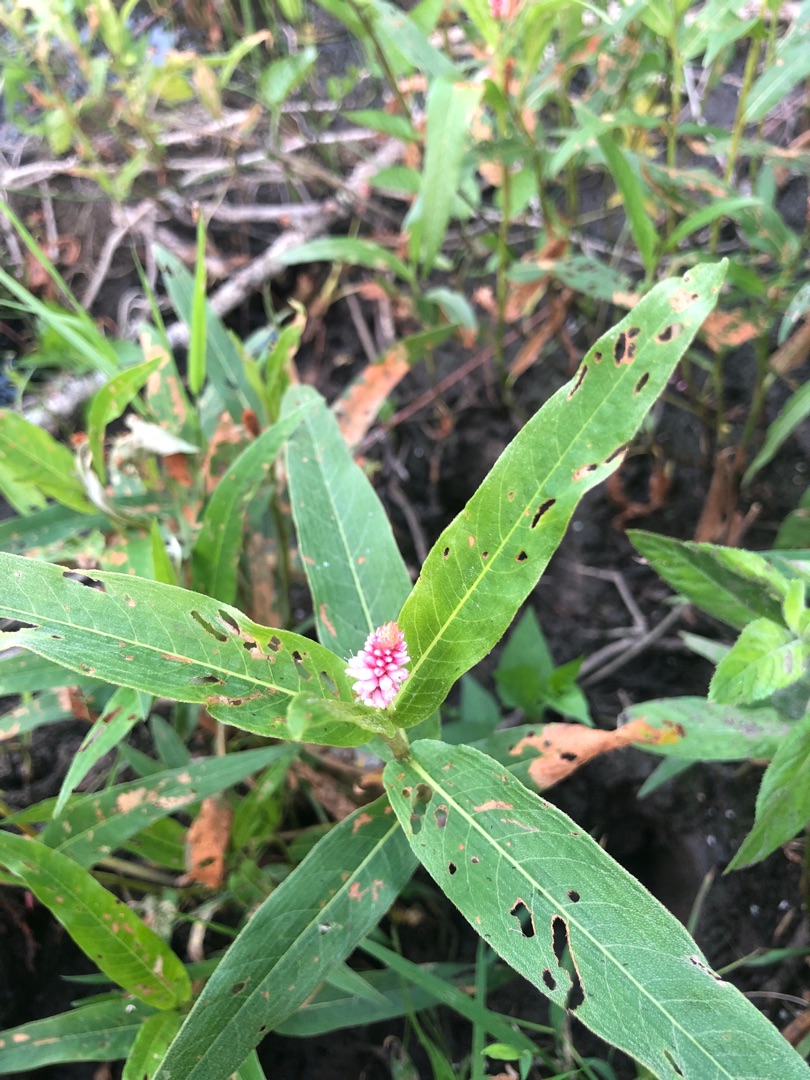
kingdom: Plantae
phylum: Tracheophyta
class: Magnoliopsida
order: Caryophyllales
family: Polygonaceae
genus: Persicaria
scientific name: Persicaria amphibia
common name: Vand-pileurt
